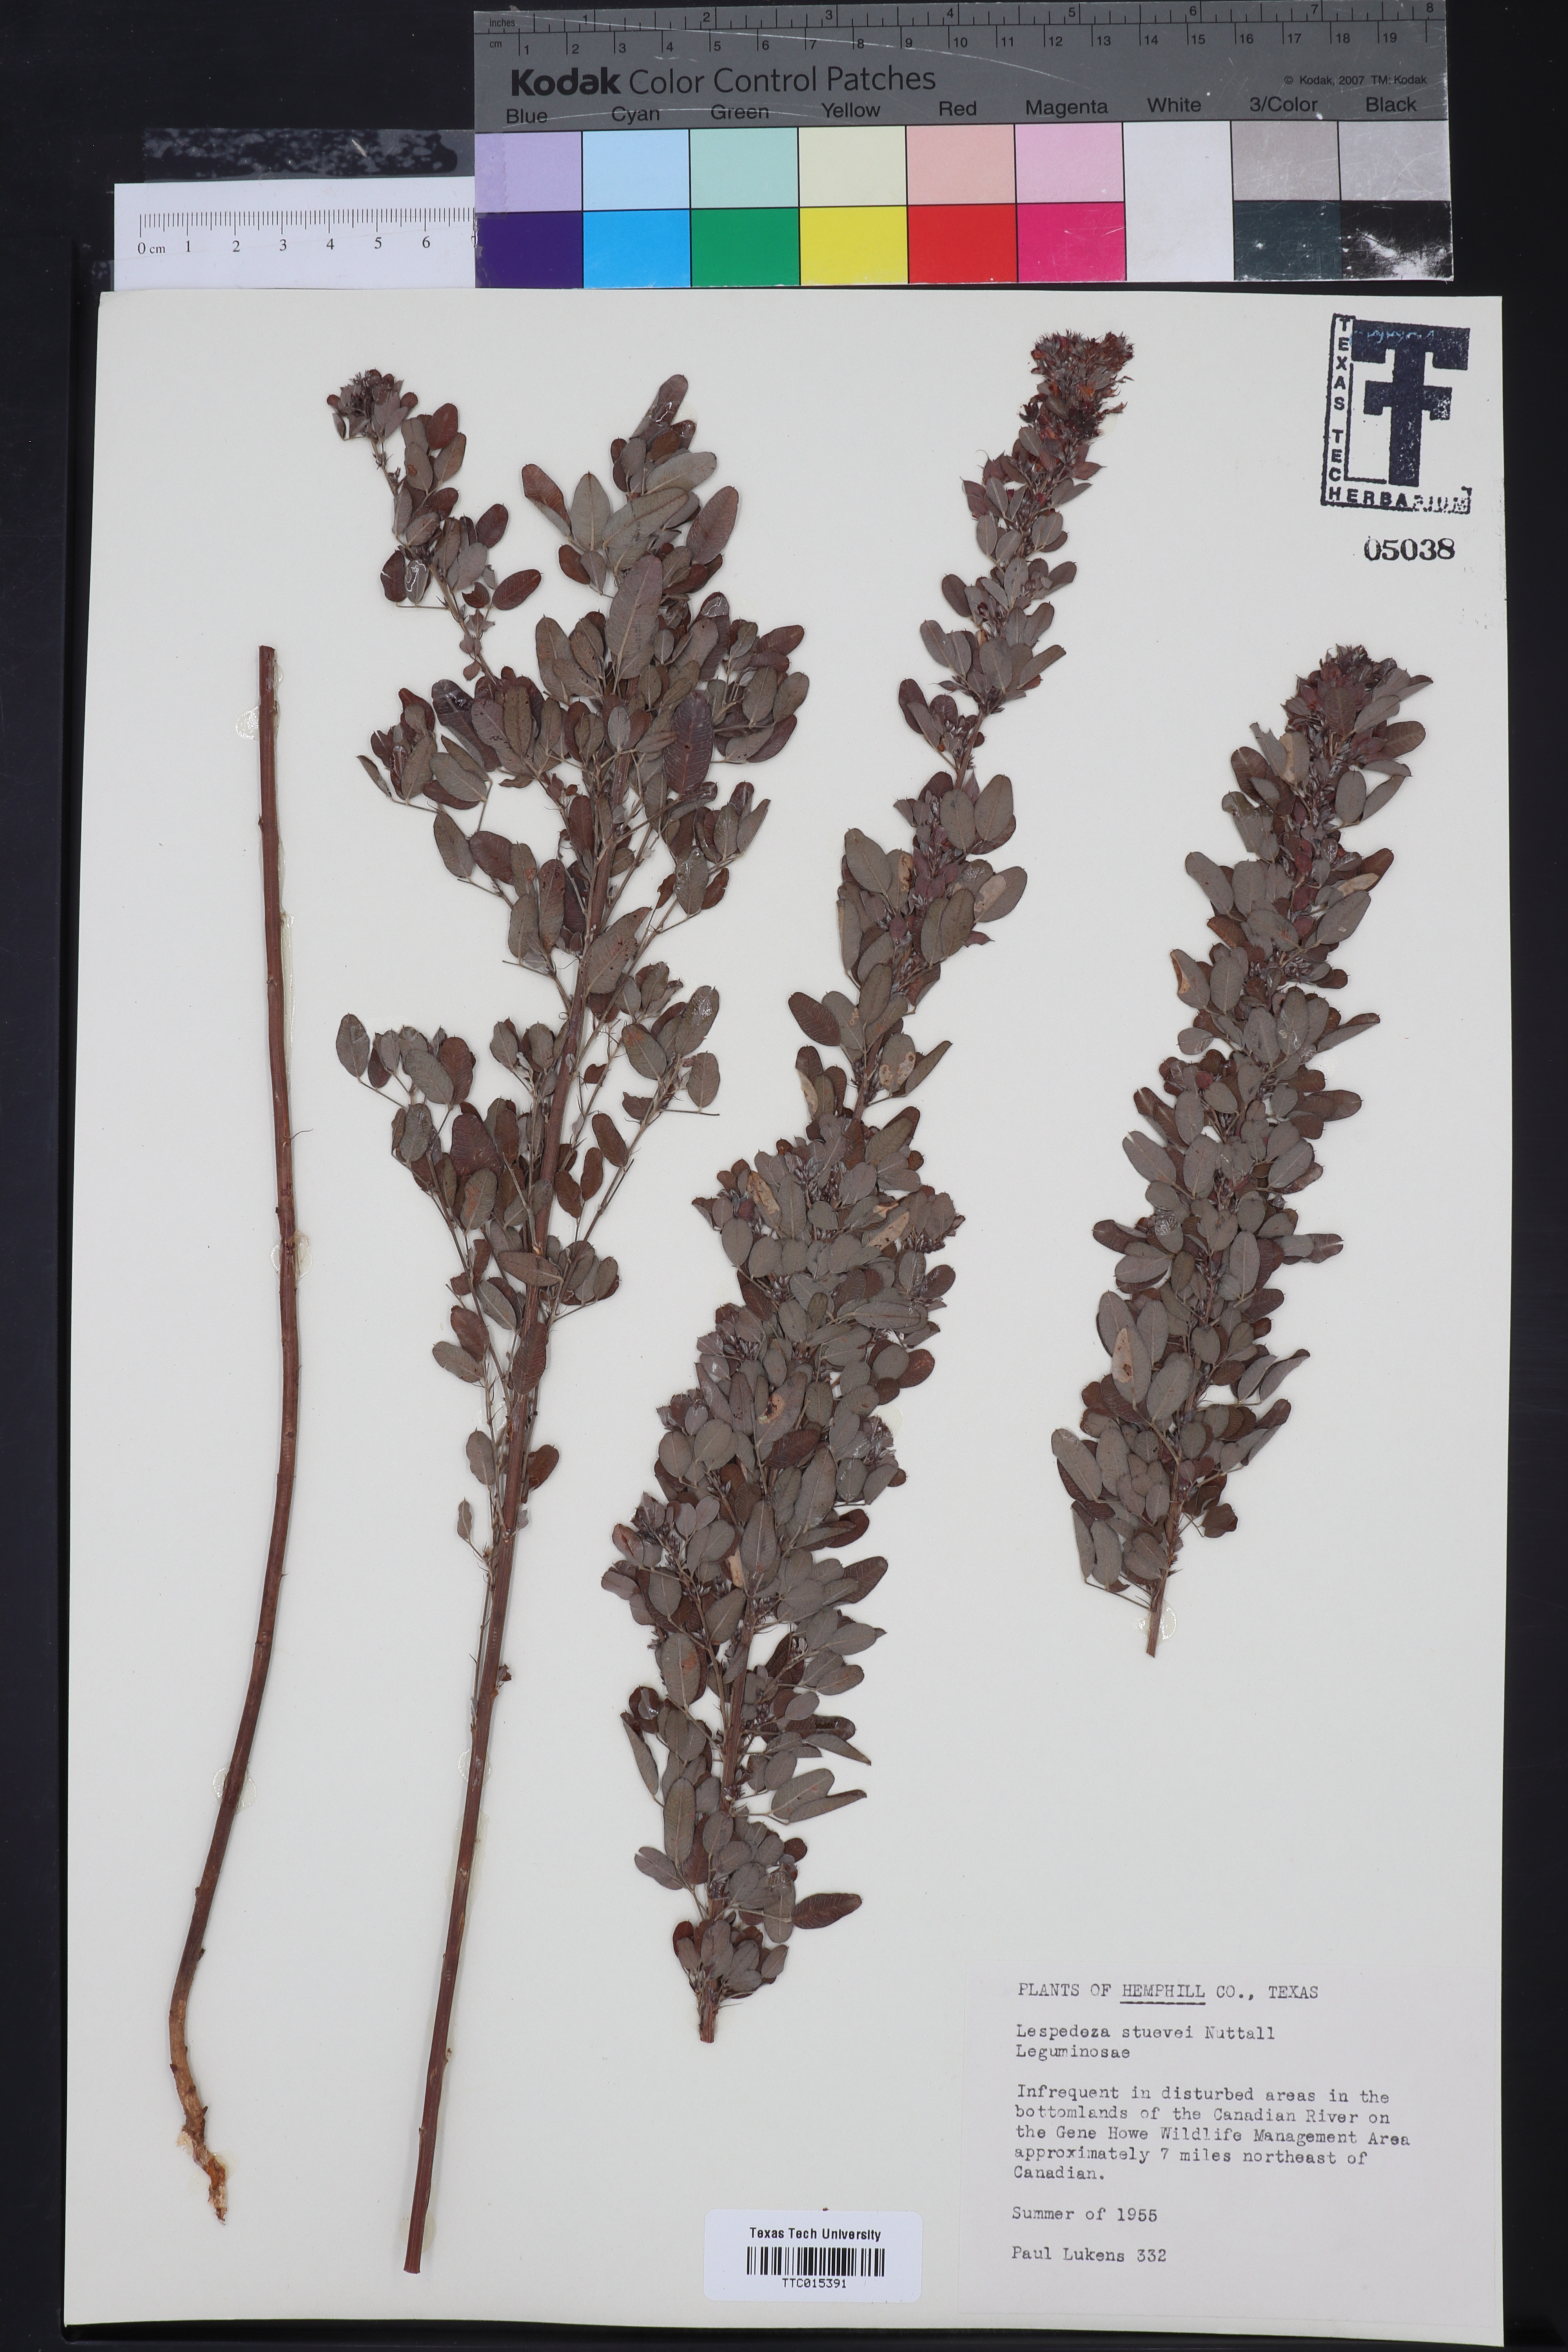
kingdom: Plantae
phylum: Tracheophyta
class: Magnoliopsida
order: Fabales
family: Fabaceae
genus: Lespedeza
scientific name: Lespedeza stuevei
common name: Tall bush-clover
